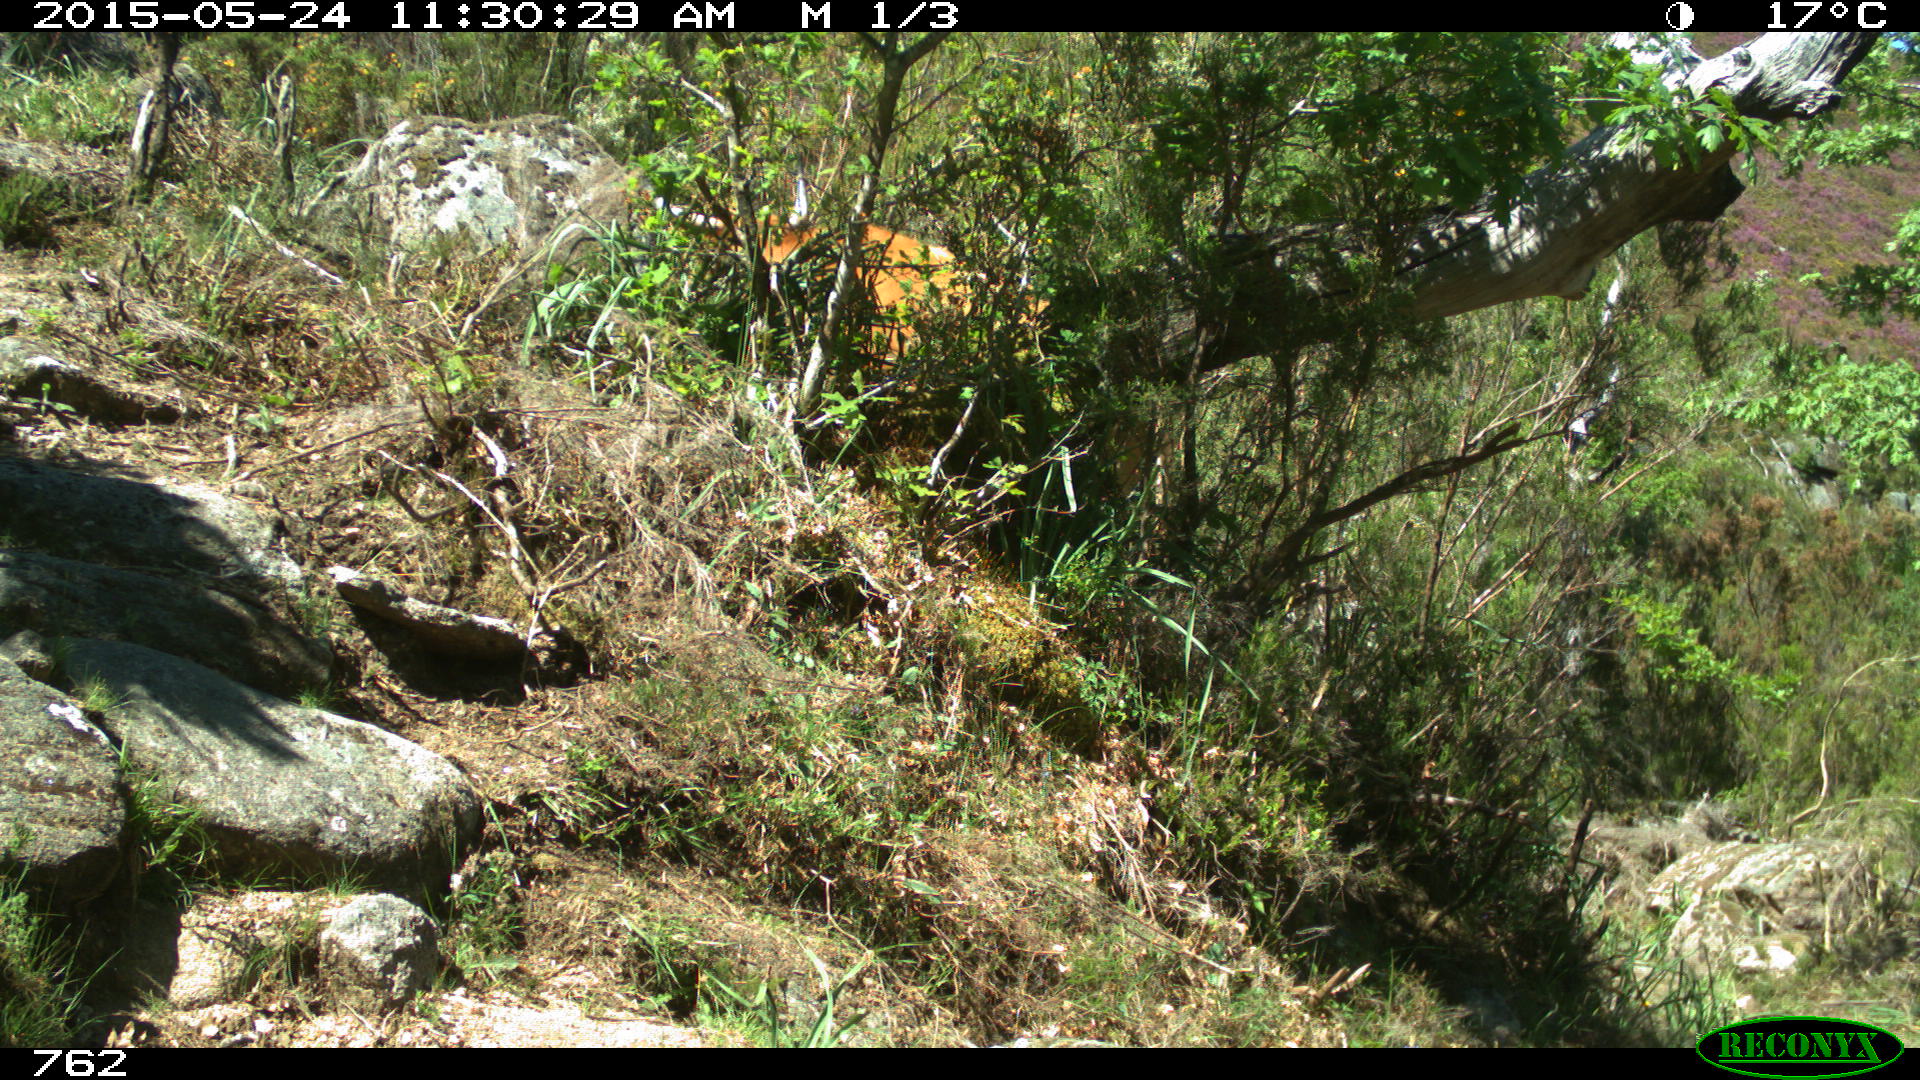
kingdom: Animalia
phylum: Chordata
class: Mammalia
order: Artiodactyla
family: Bovidae
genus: Bos
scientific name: Bos taurus
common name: Domesticated cattle
